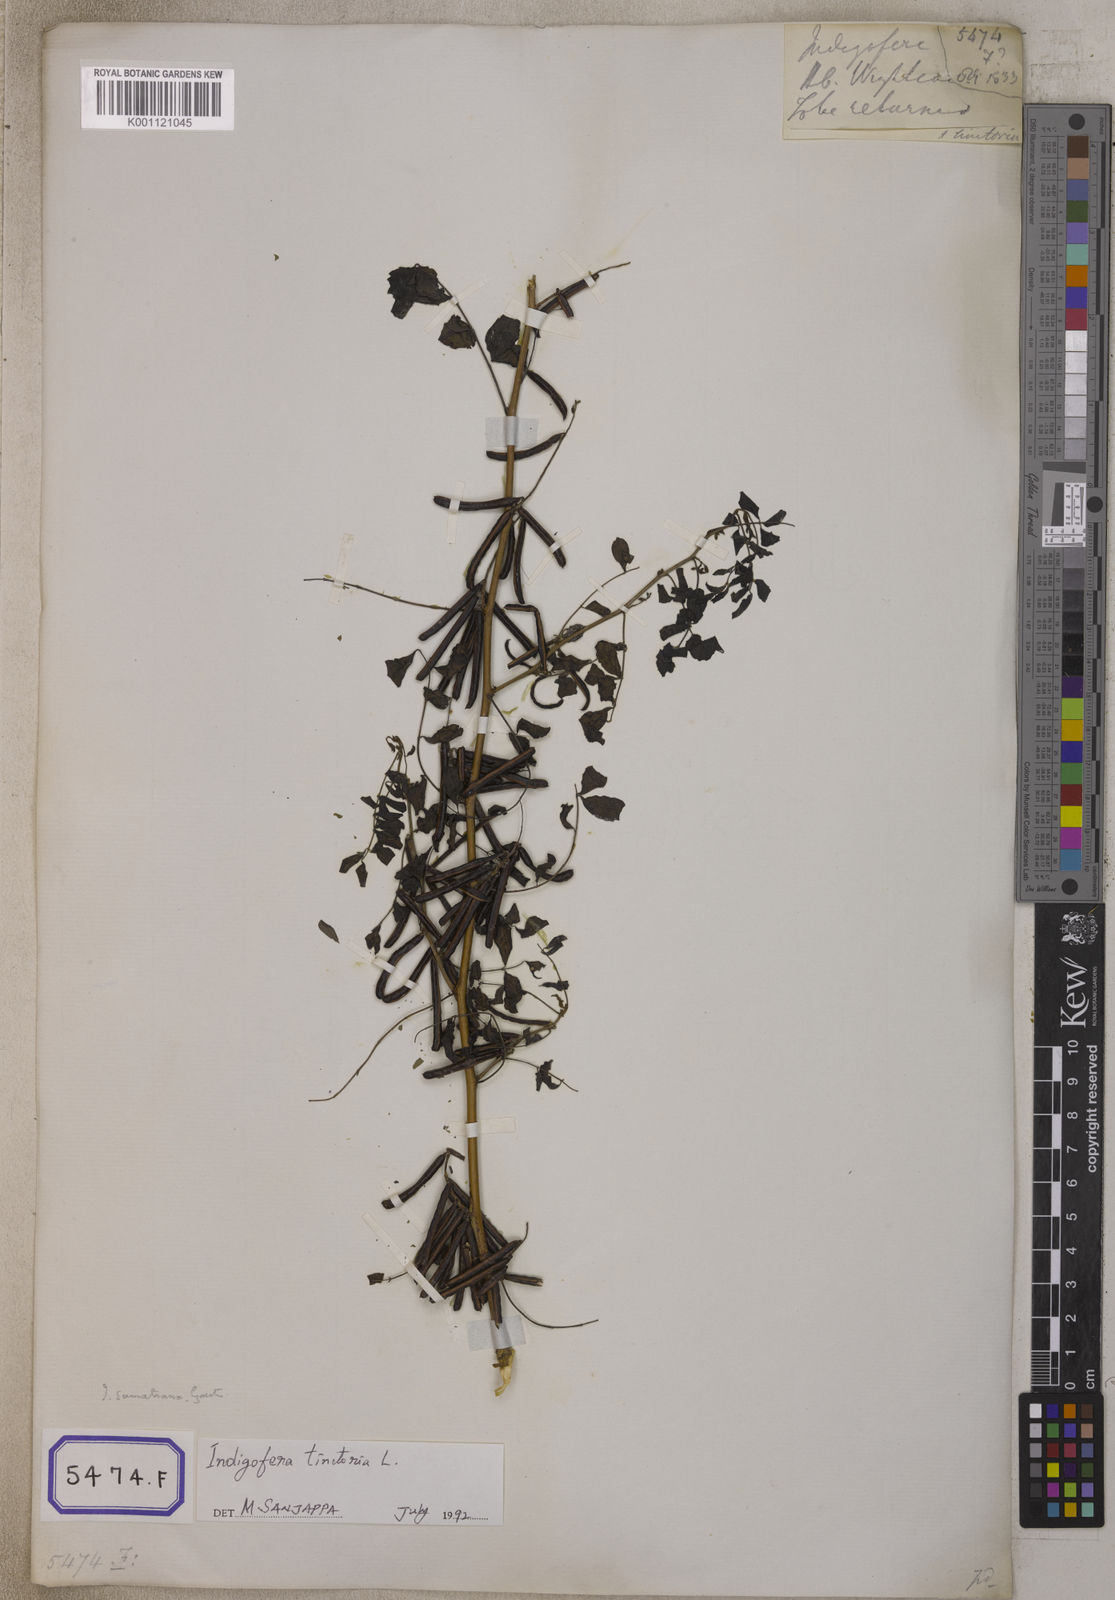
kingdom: Plantae
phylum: Tracheophyta
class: Magnoliopsida
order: Fabales
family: Fabaceae
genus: Indigofera
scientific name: Indigofera tinctoria
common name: True indigo
